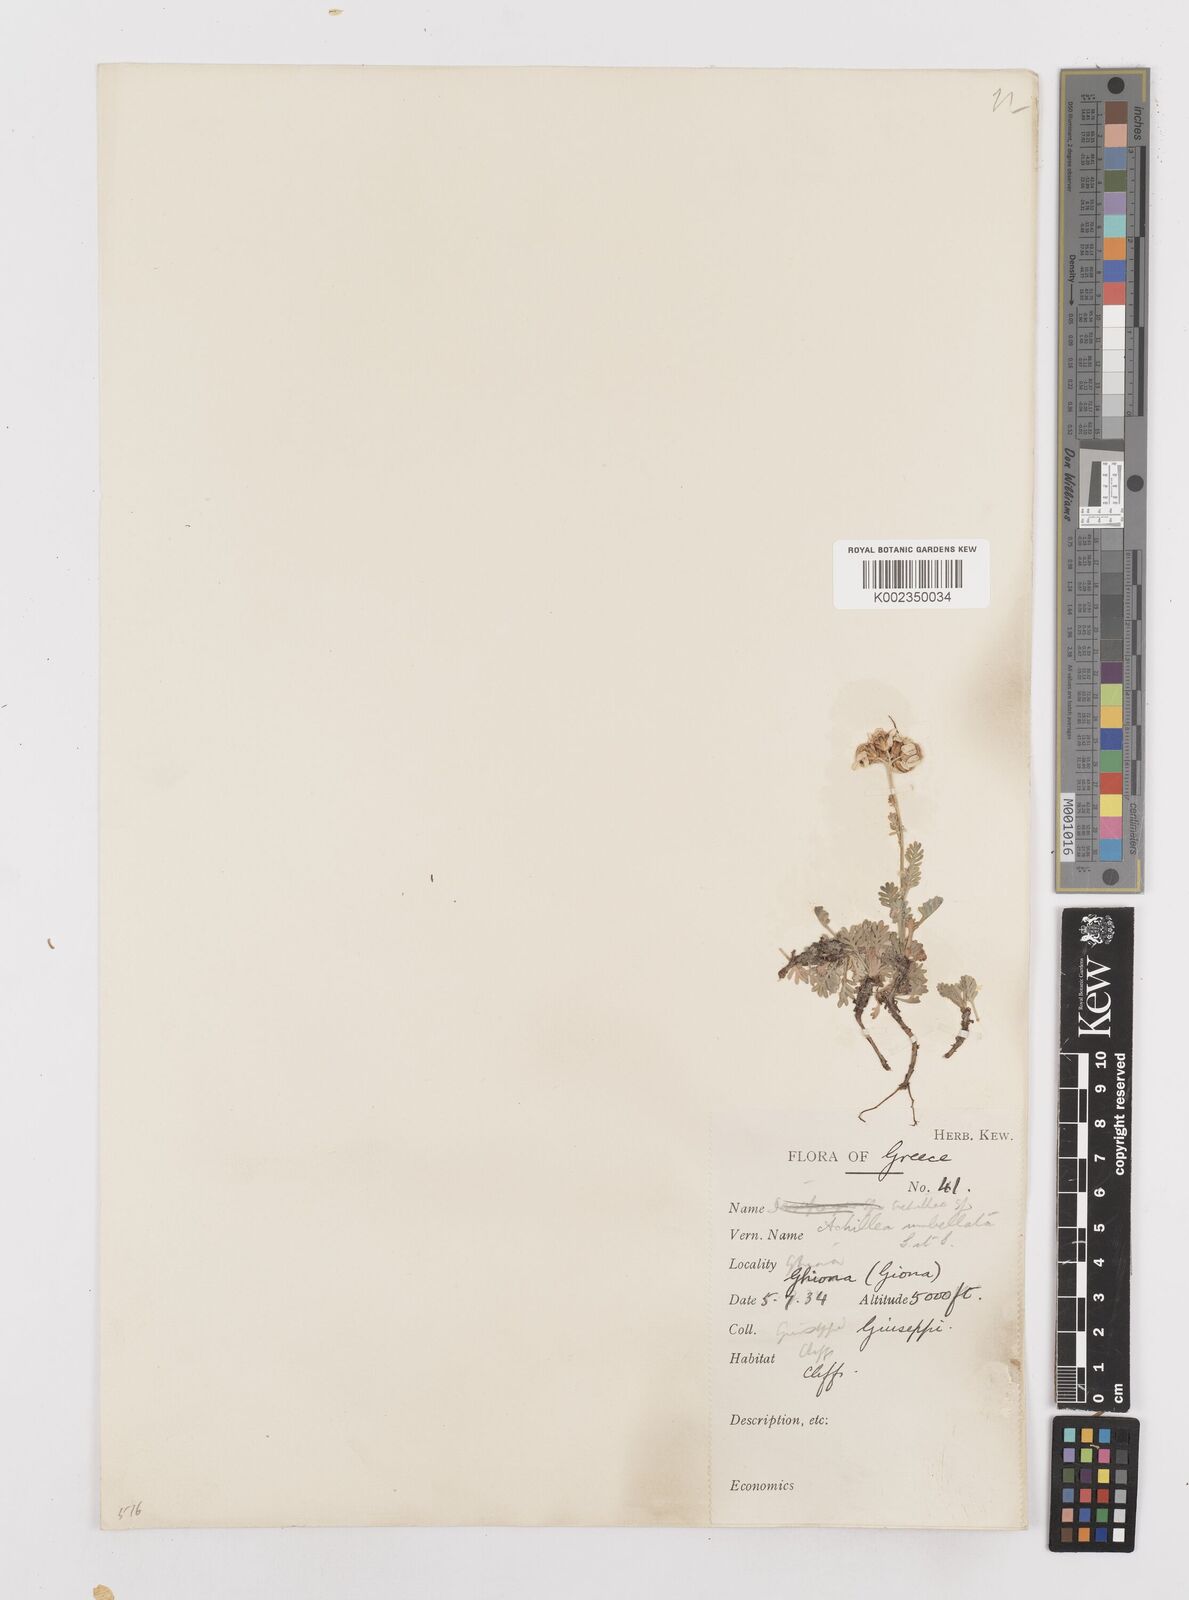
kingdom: Plantae
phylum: Tracheophyta
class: Magnoliopsida
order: Asterales
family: Asteraceae
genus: Achillea
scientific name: Achillea umbellata
